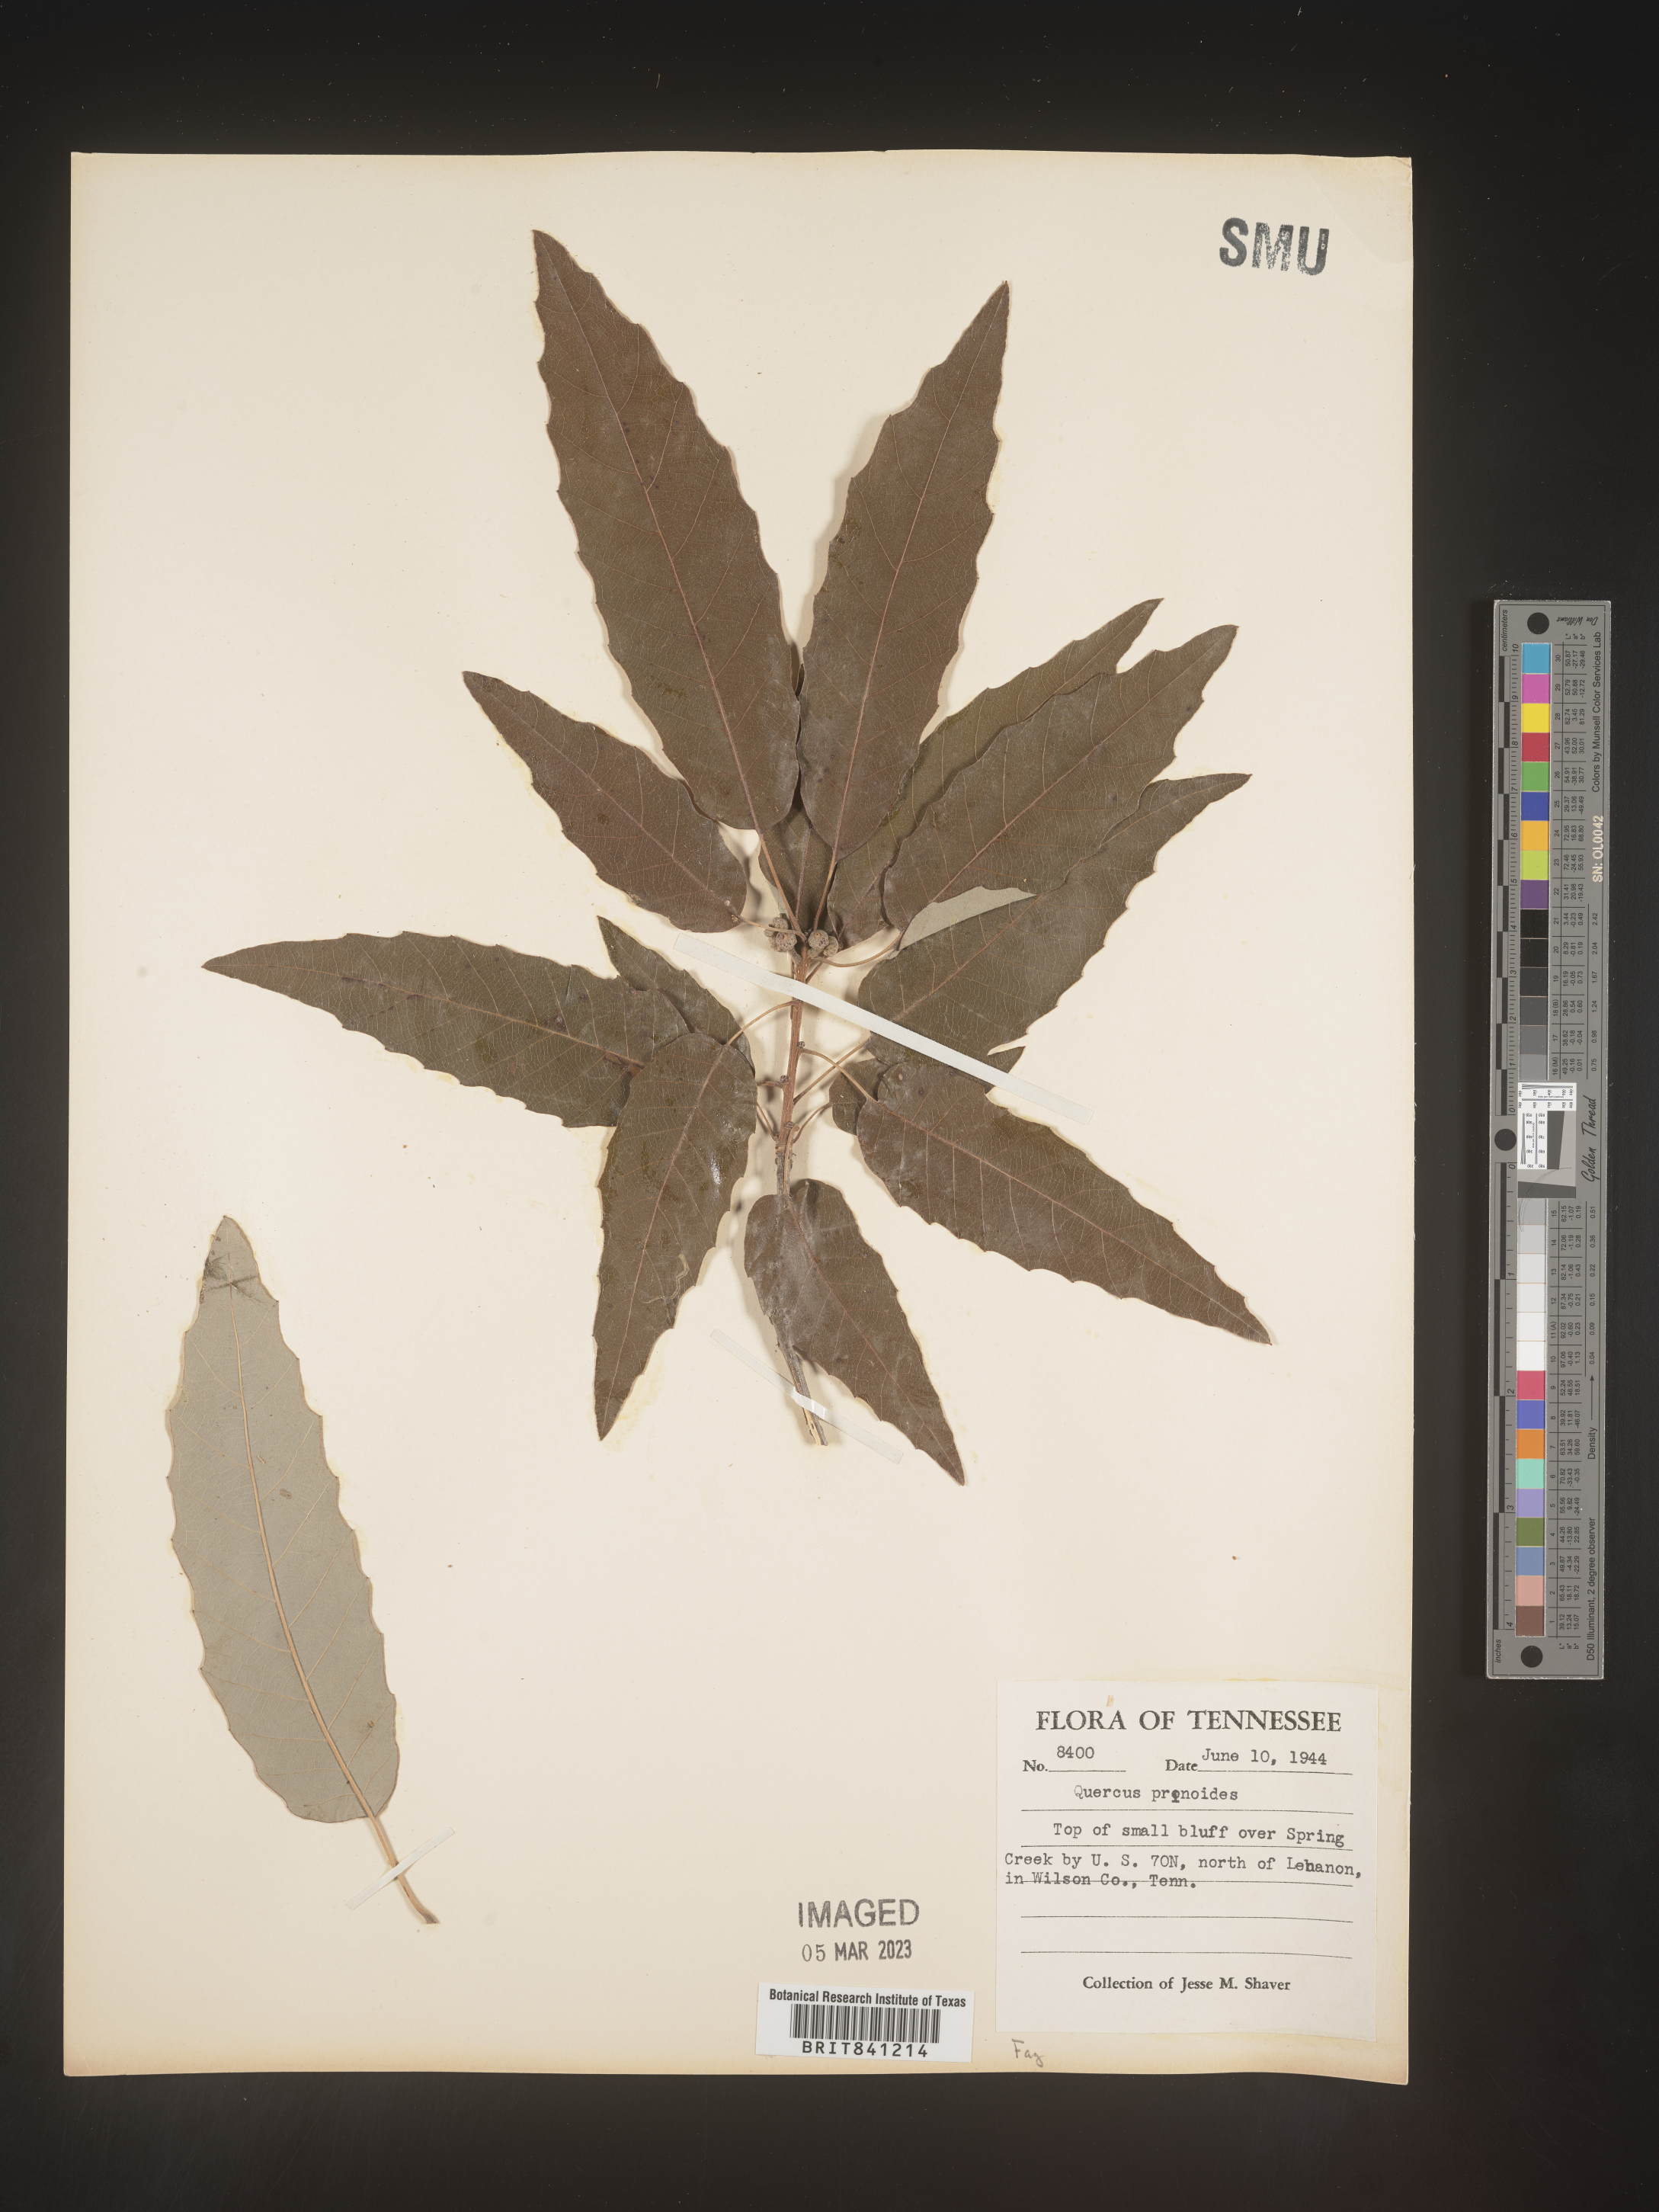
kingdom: Plantae
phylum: Tracheophyta
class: Magnoliopsida
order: Fagales
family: Fagaceae
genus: Quercus
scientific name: Quercus prinoides
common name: Dwarf chinkapin oak
